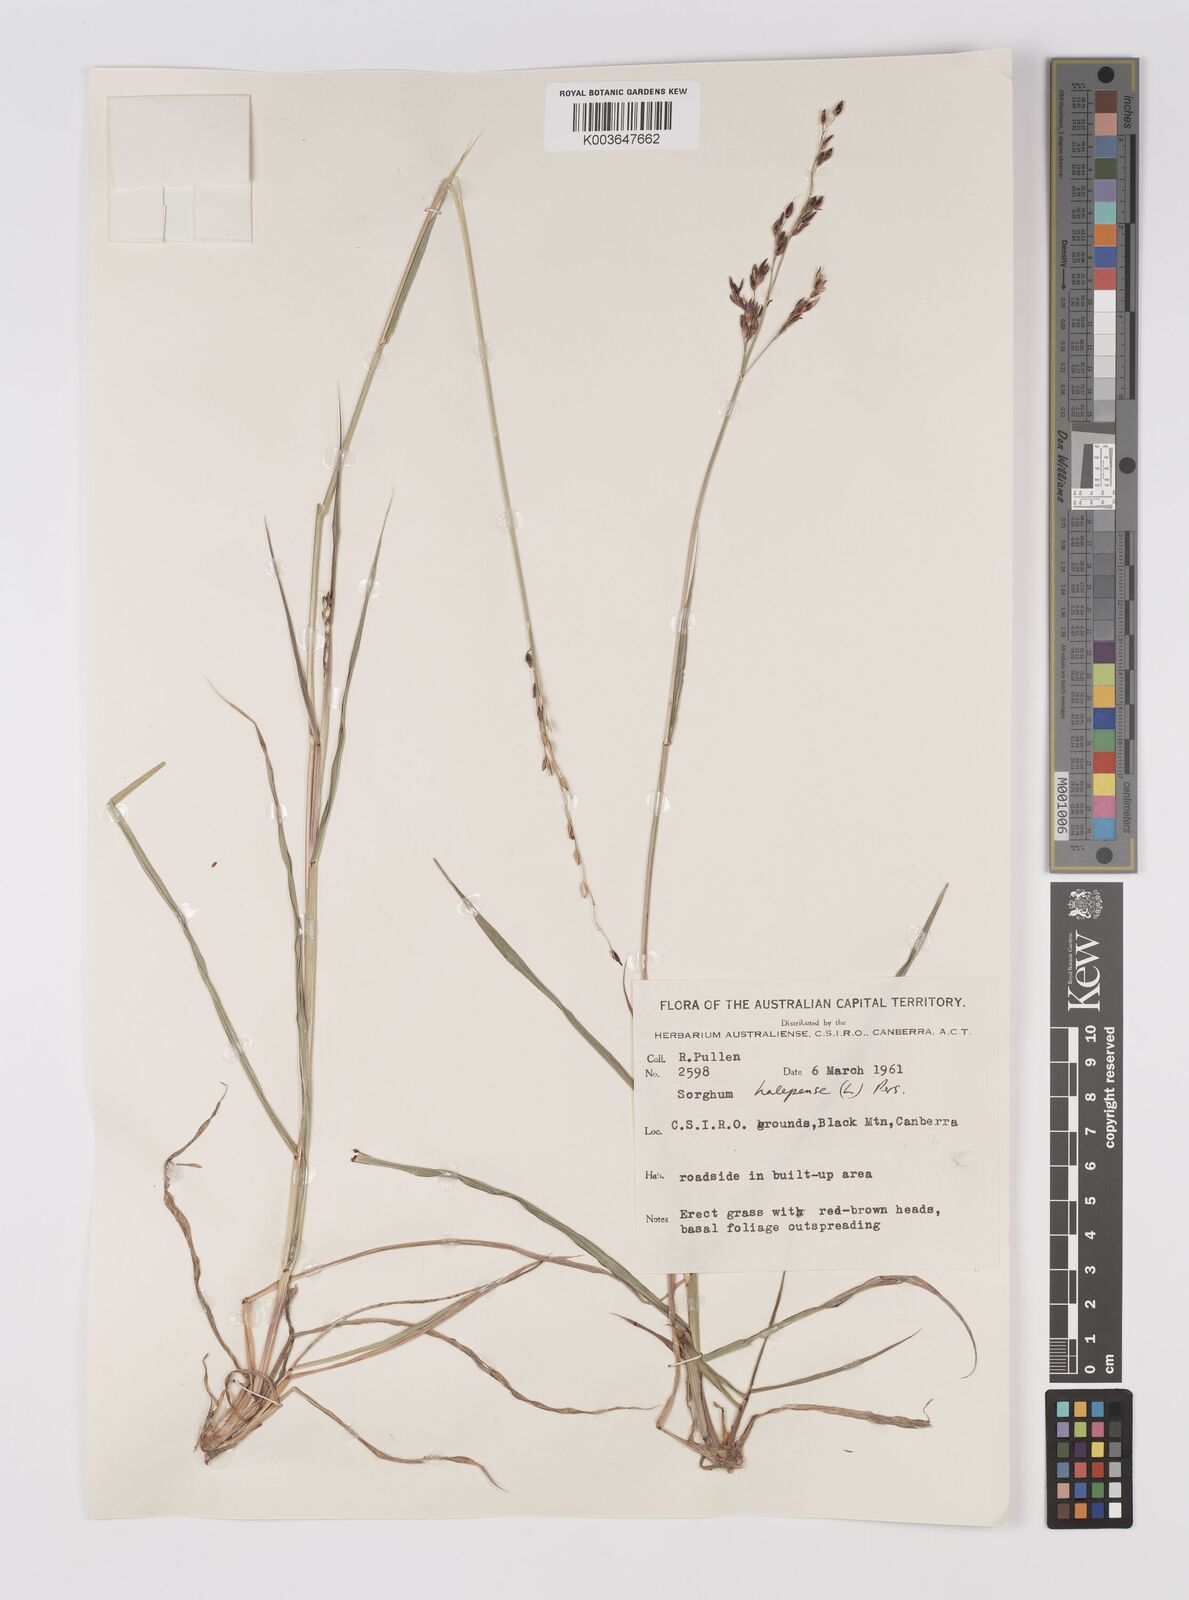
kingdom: Plantae
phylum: Tracheophyta
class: Liliopsida
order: Poales
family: Poaceae
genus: Sorghum
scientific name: Sorghum halepense
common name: Johnson-grass
